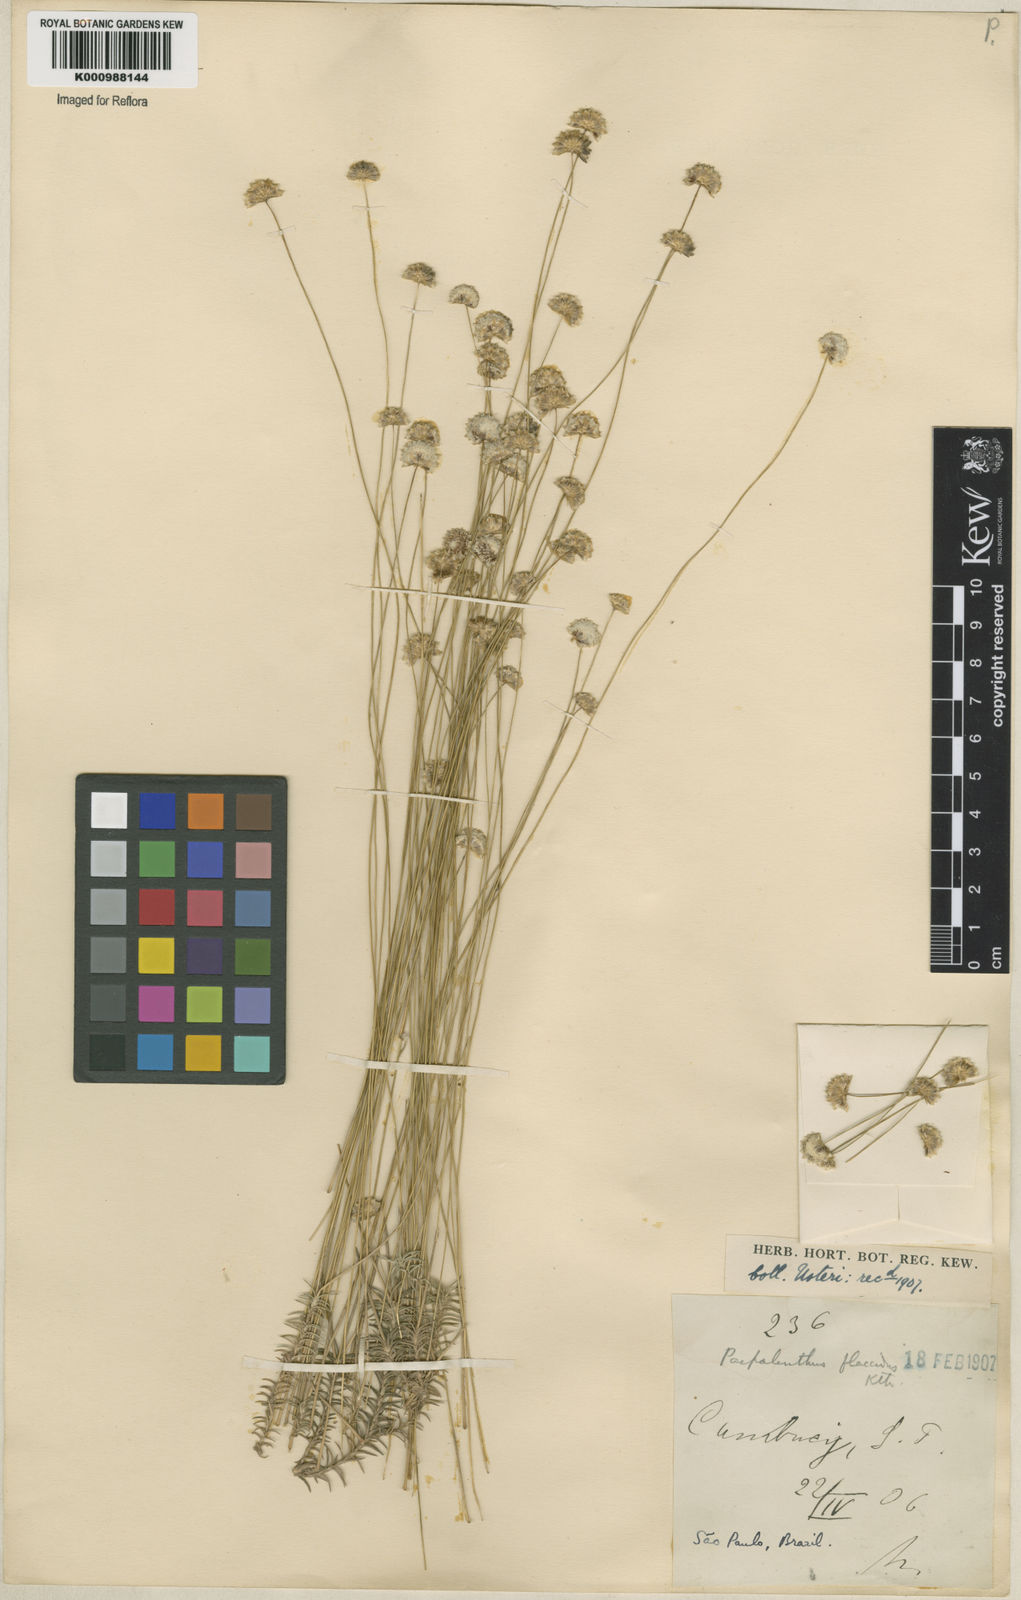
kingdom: Plantae
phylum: Tracheophyta
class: Liliopsida
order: Poales
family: Eriocaulaceae
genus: Paepalanthus
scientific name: Paepalanthus flaccidus
